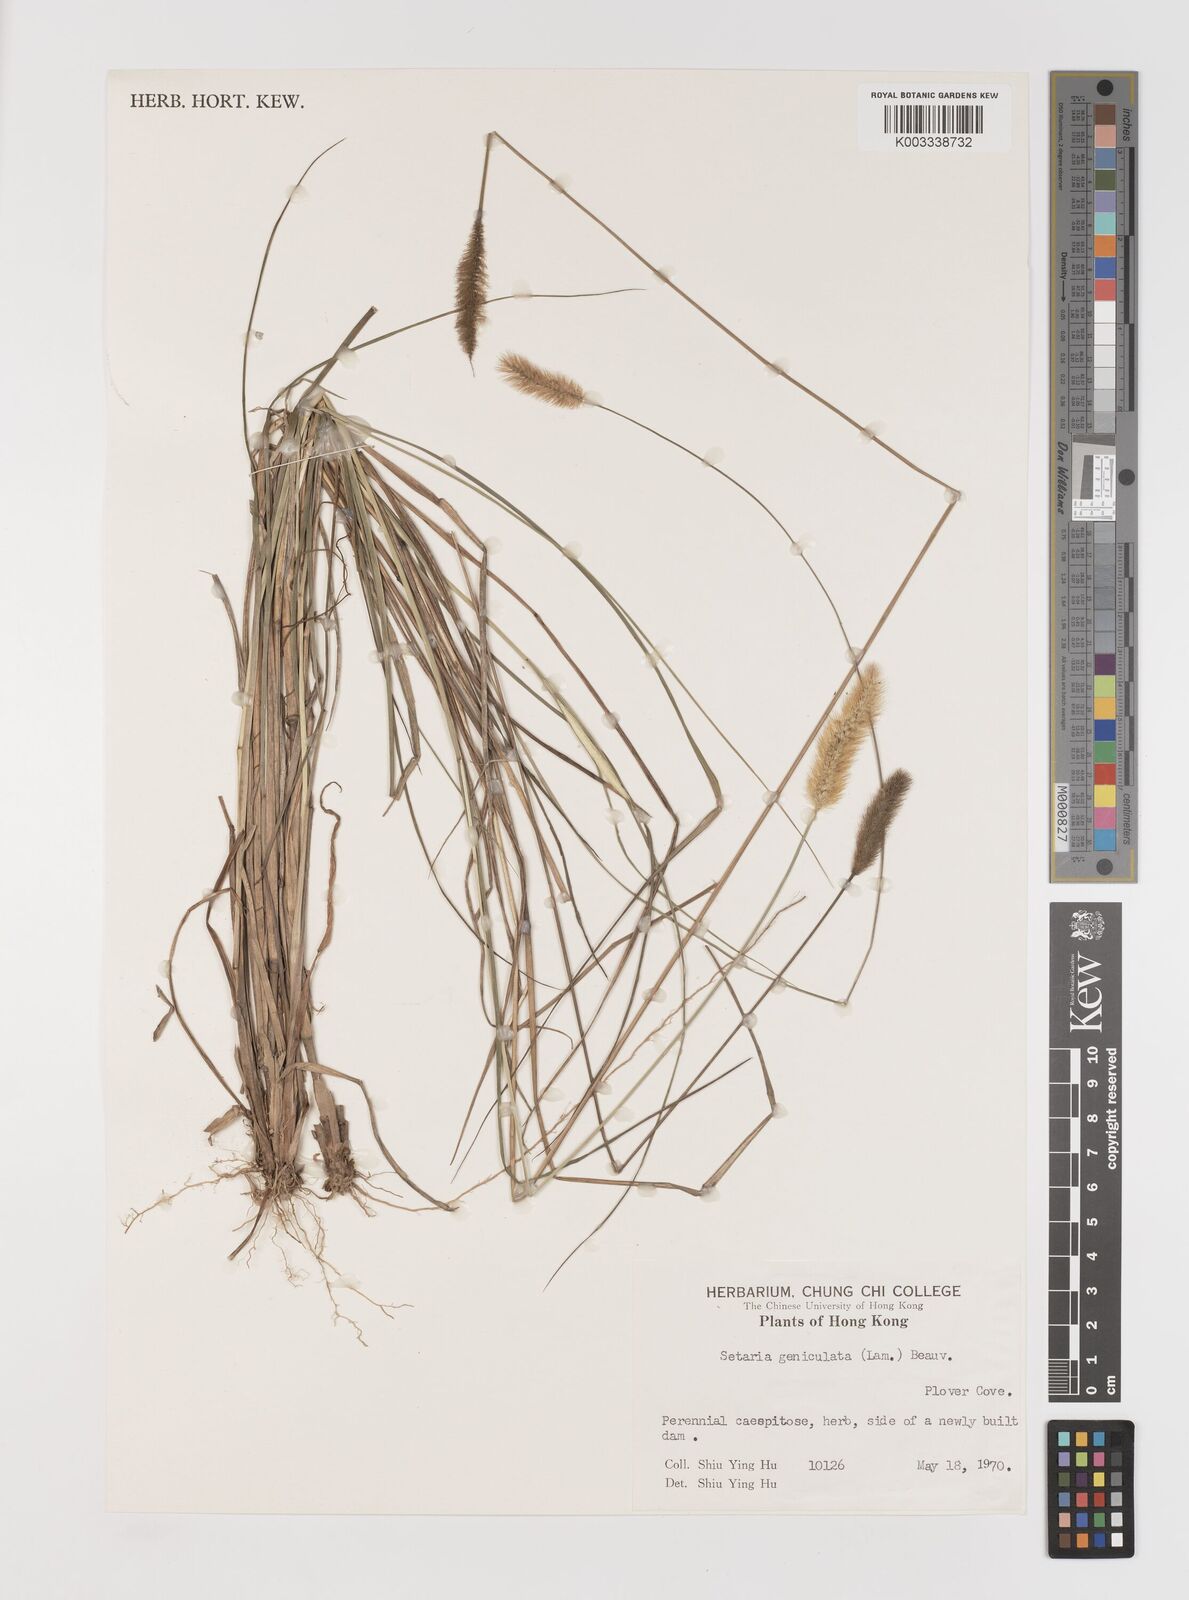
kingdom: Plantae
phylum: Tracheophyta
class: Liliopsida
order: Poales
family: Poaceae
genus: Setaria
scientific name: Setaria parviflora
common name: Knotroot bristle-grass
